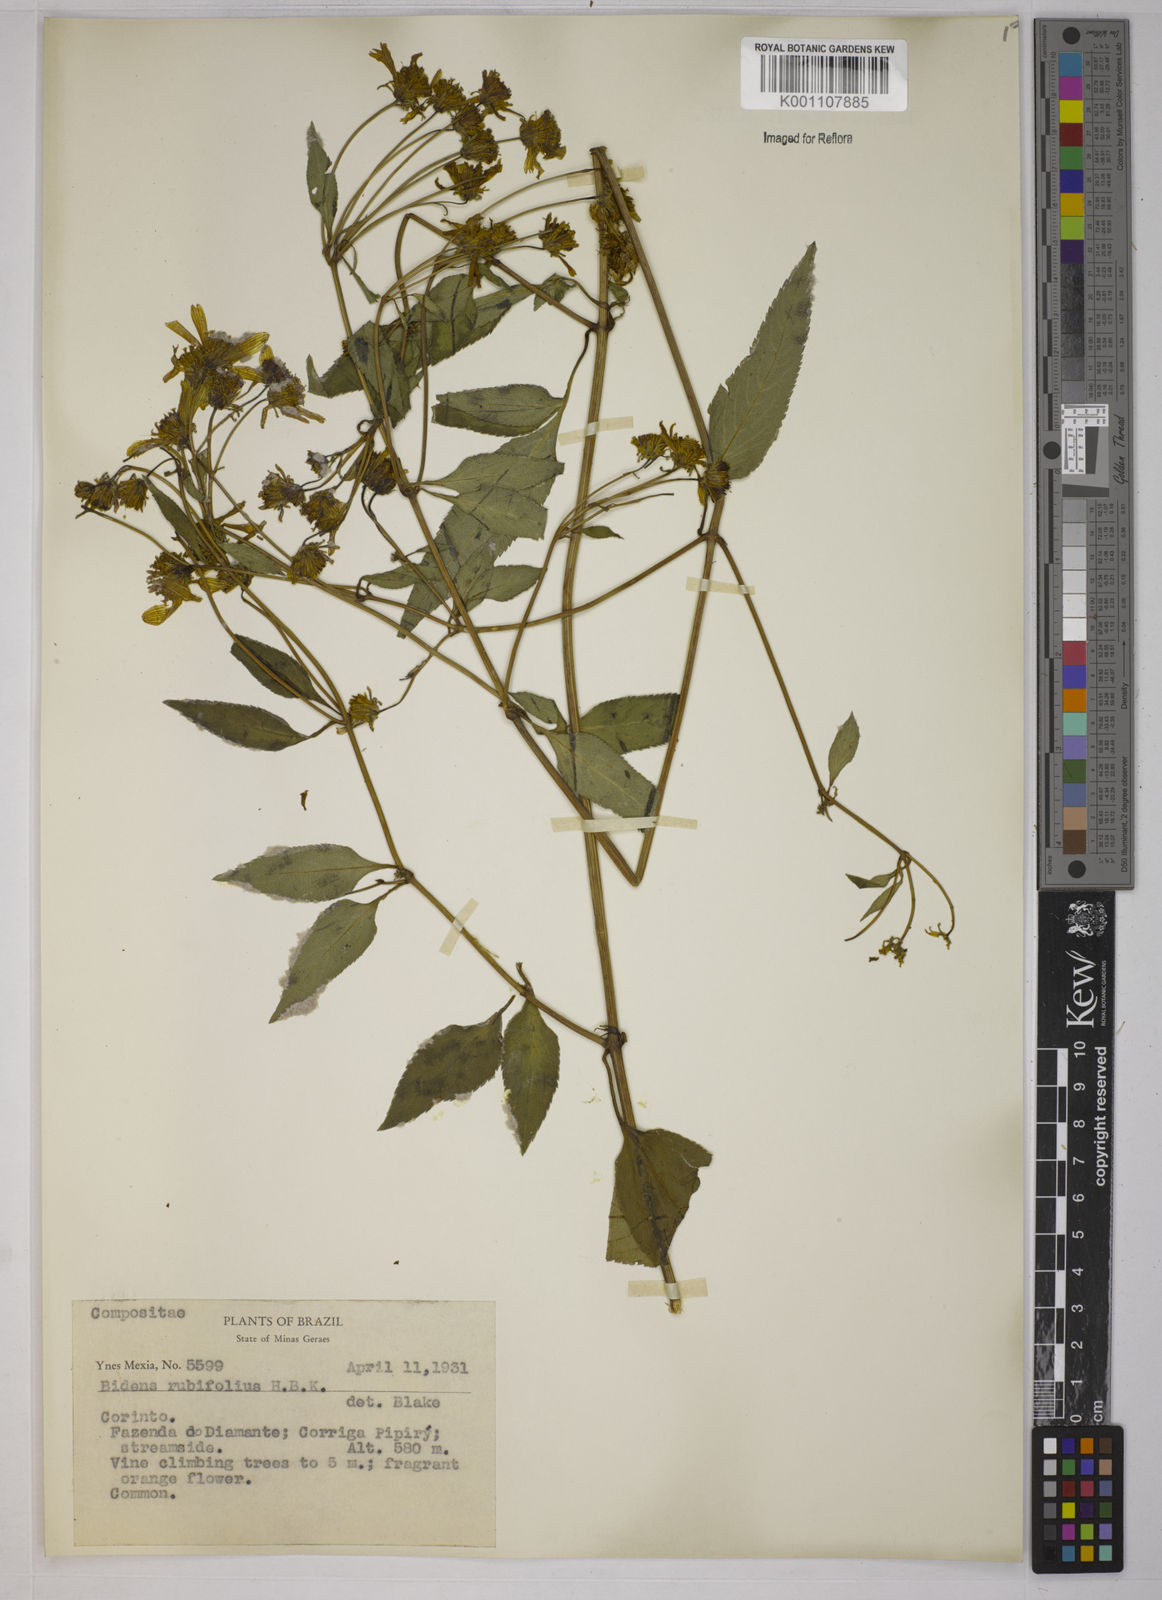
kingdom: Plantae
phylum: Tracheophyta
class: Magnoliopsida
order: Asterales
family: Asteraceae
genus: Bidens
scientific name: Bidens segetum
